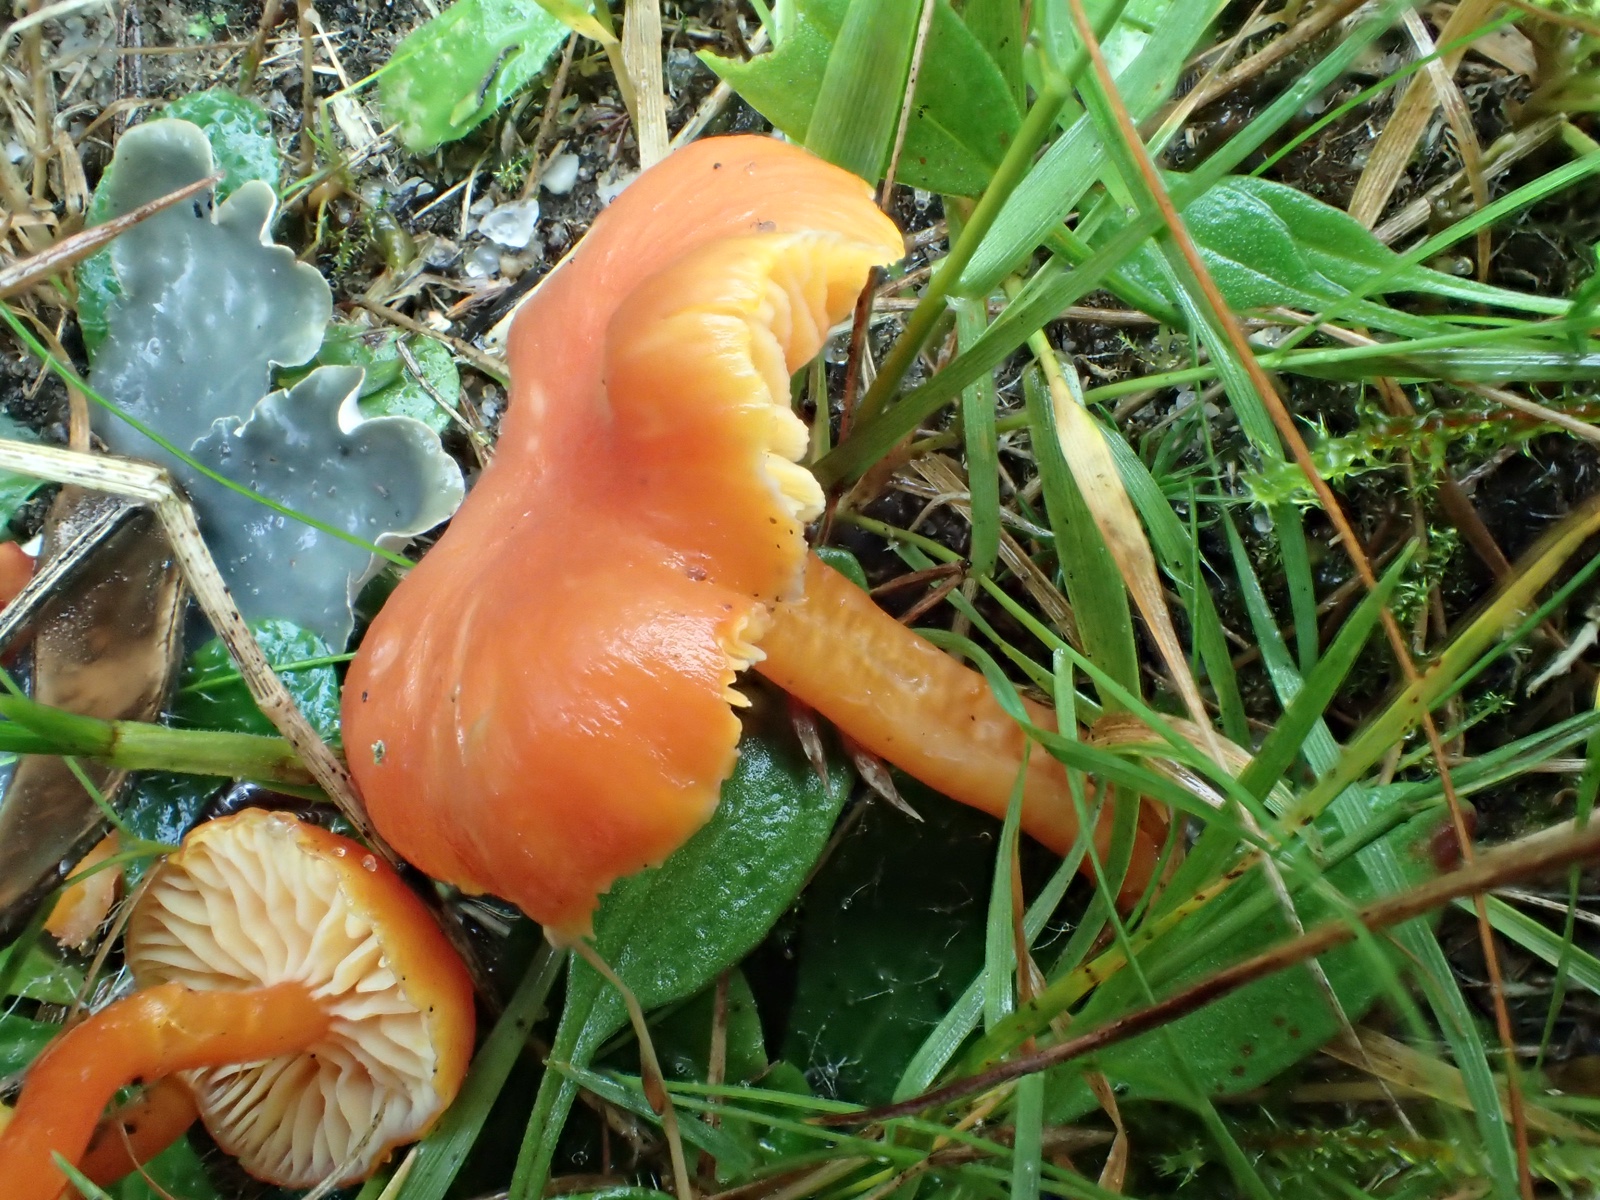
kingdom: Fungi
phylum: Basidiomycota
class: Agaricomycetes
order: Agaricales
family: Hygrophoraceae
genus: Hygrocybe
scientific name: Hygrocybe
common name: vokshat
